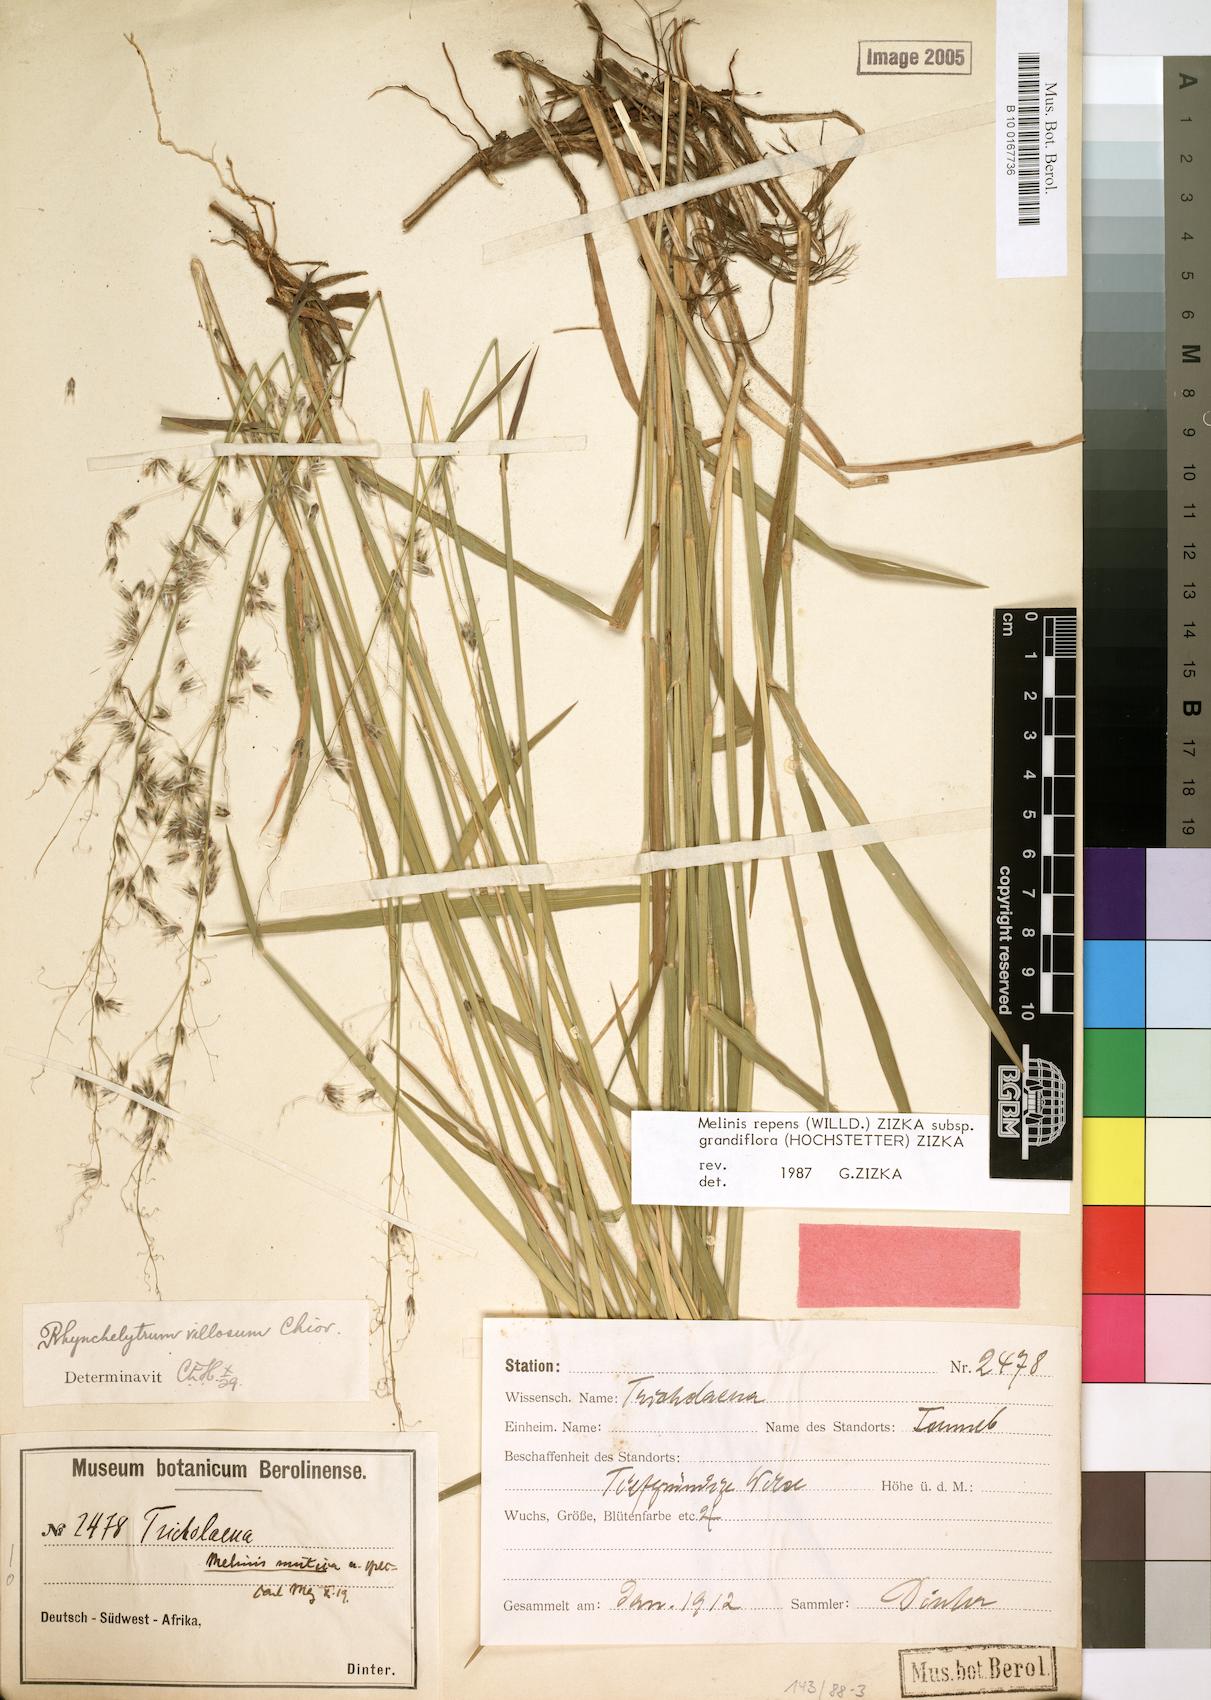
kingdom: Plantae
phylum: Tracheophyta
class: Liliopsida
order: Poales
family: Poaceae
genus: Melinis
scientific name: Melinis repens
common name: Rose natal grass
